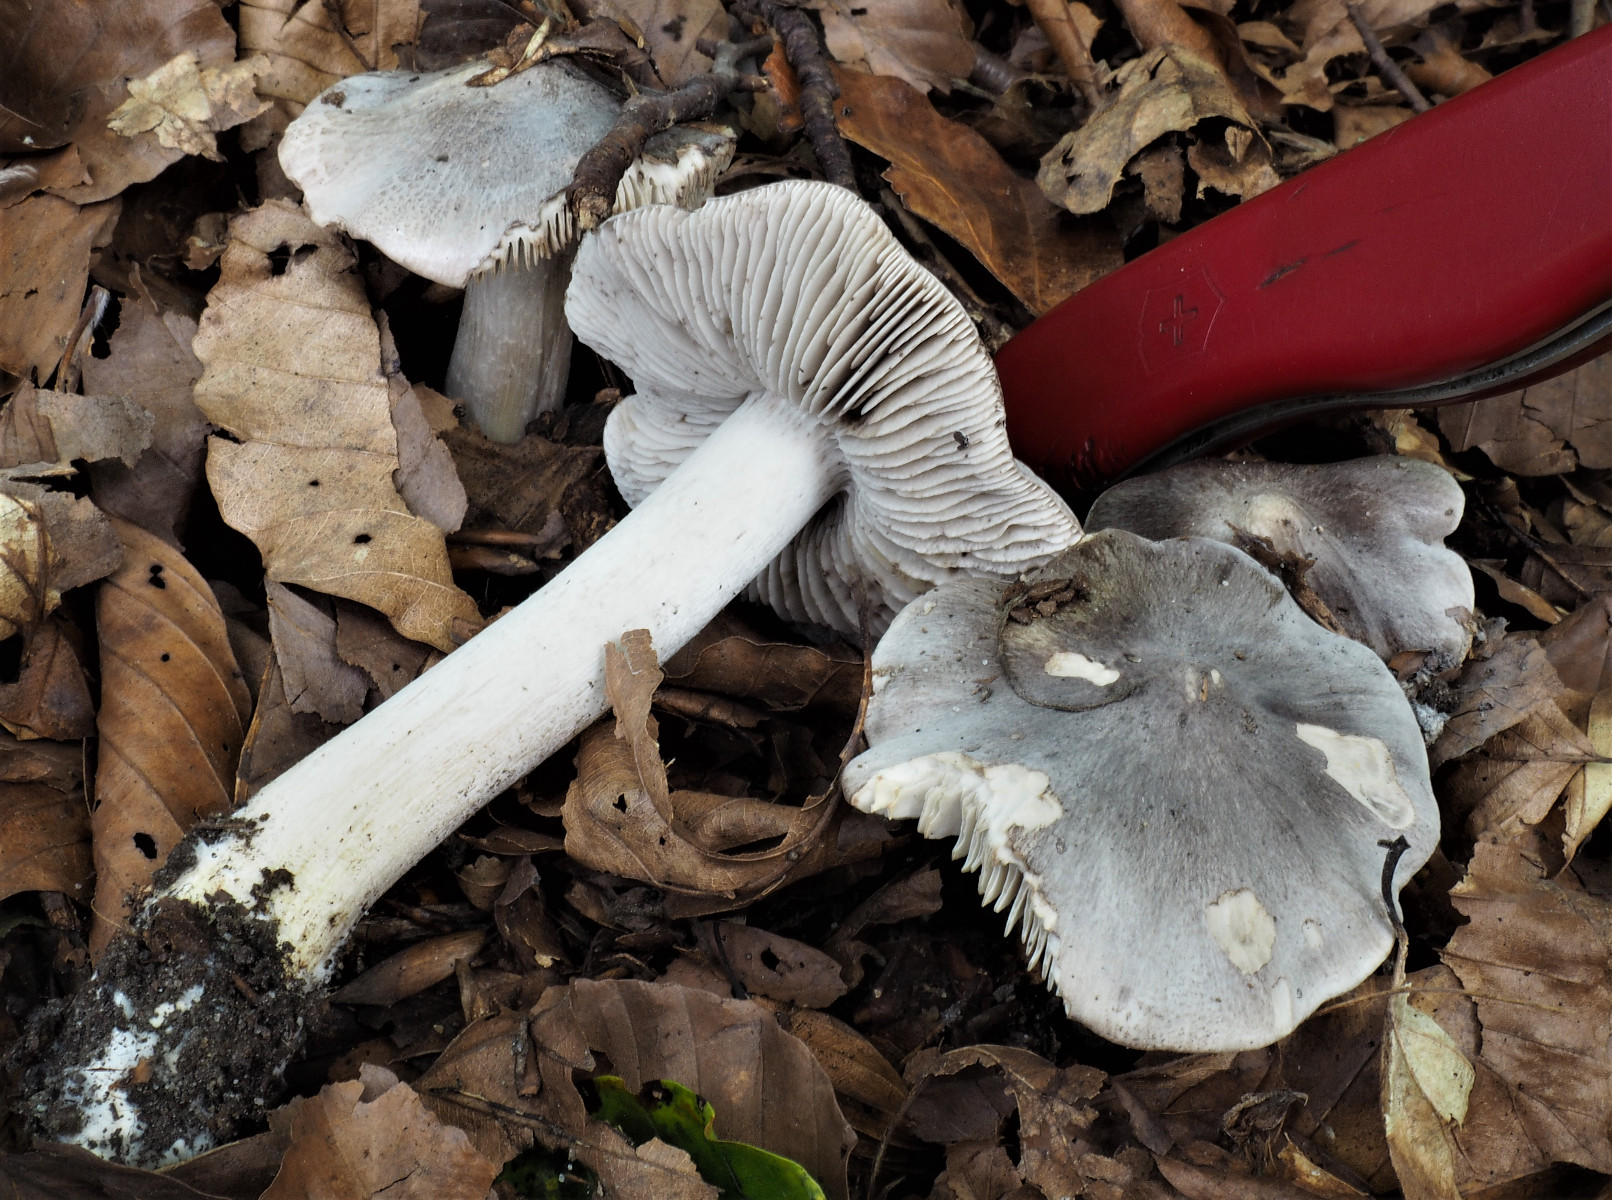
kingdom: Fungi
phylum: Basidiomycota
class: Agaricomycetes
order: Agaricales
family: Tricholomataceae
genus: Tricholoma
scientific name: Tricholoma sciodes
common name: stribet ridderhat
